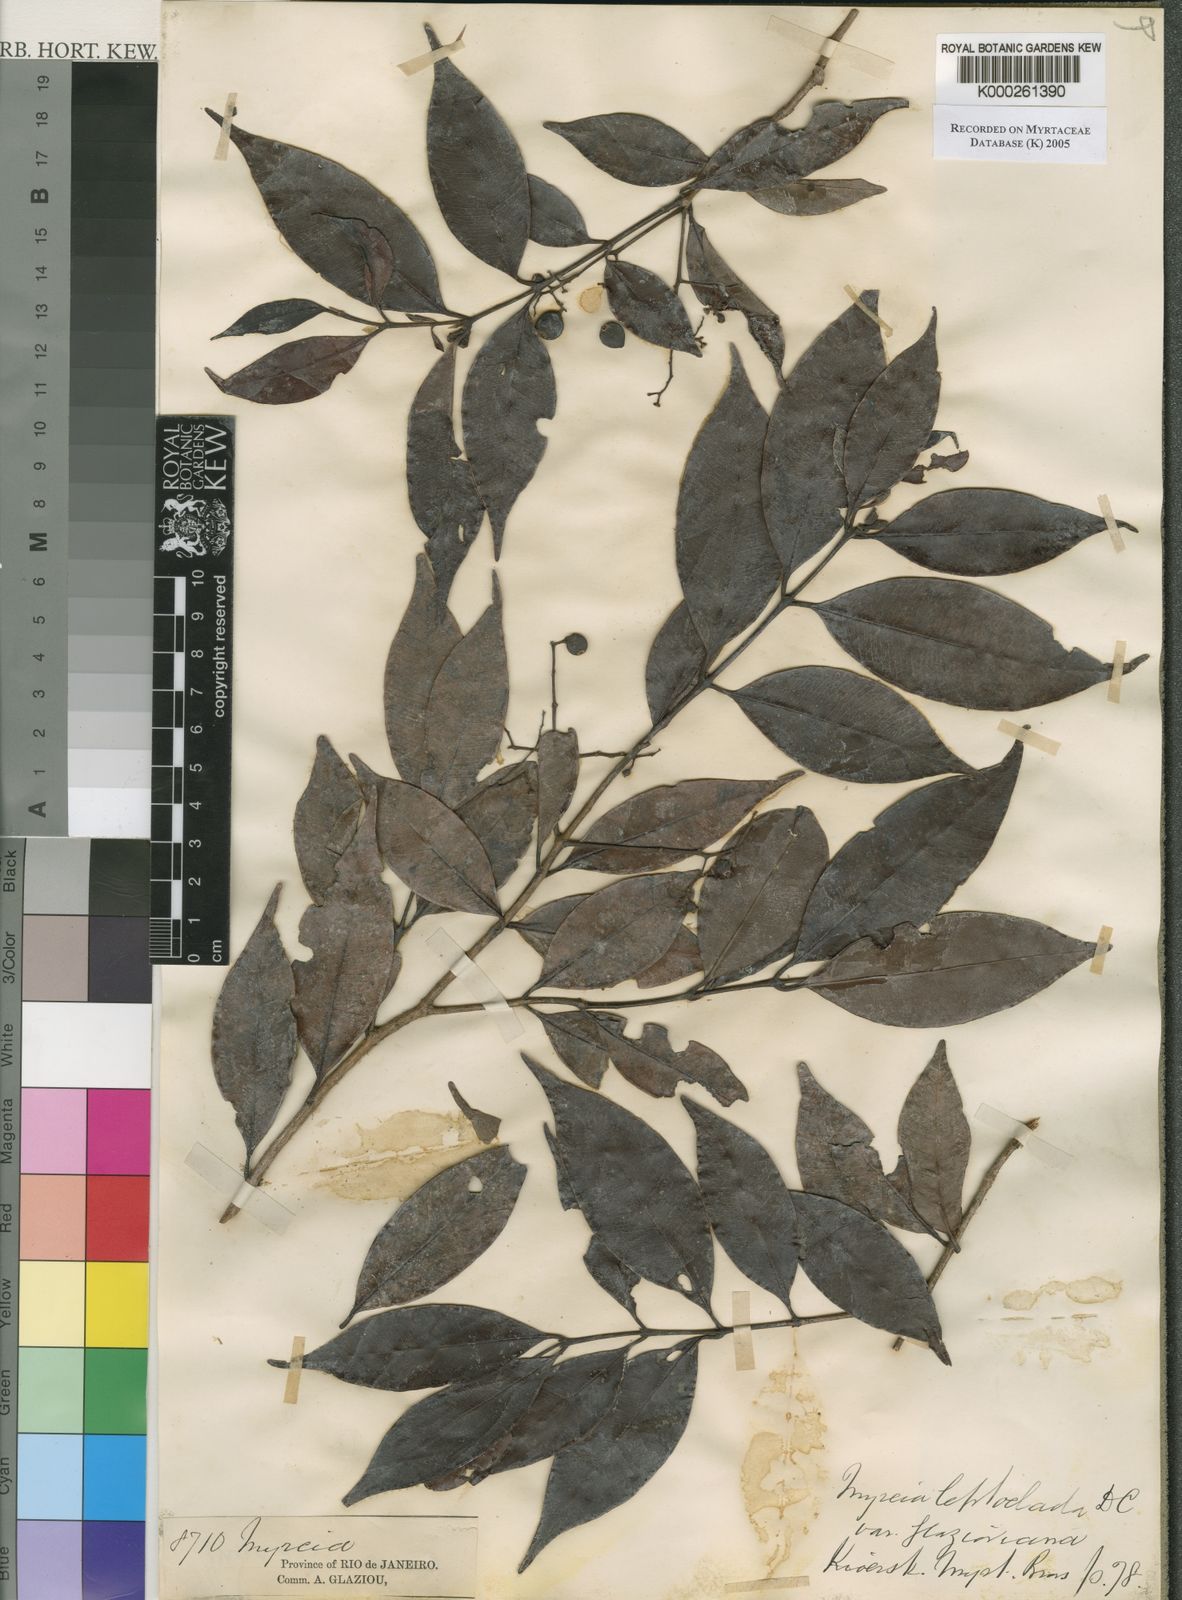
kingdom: Plantae
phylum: Tracheophyta
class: Magnoliopsida
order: Myrtales
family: Myrtaceae
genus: Myrcia
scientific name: Myrcia amazonica
